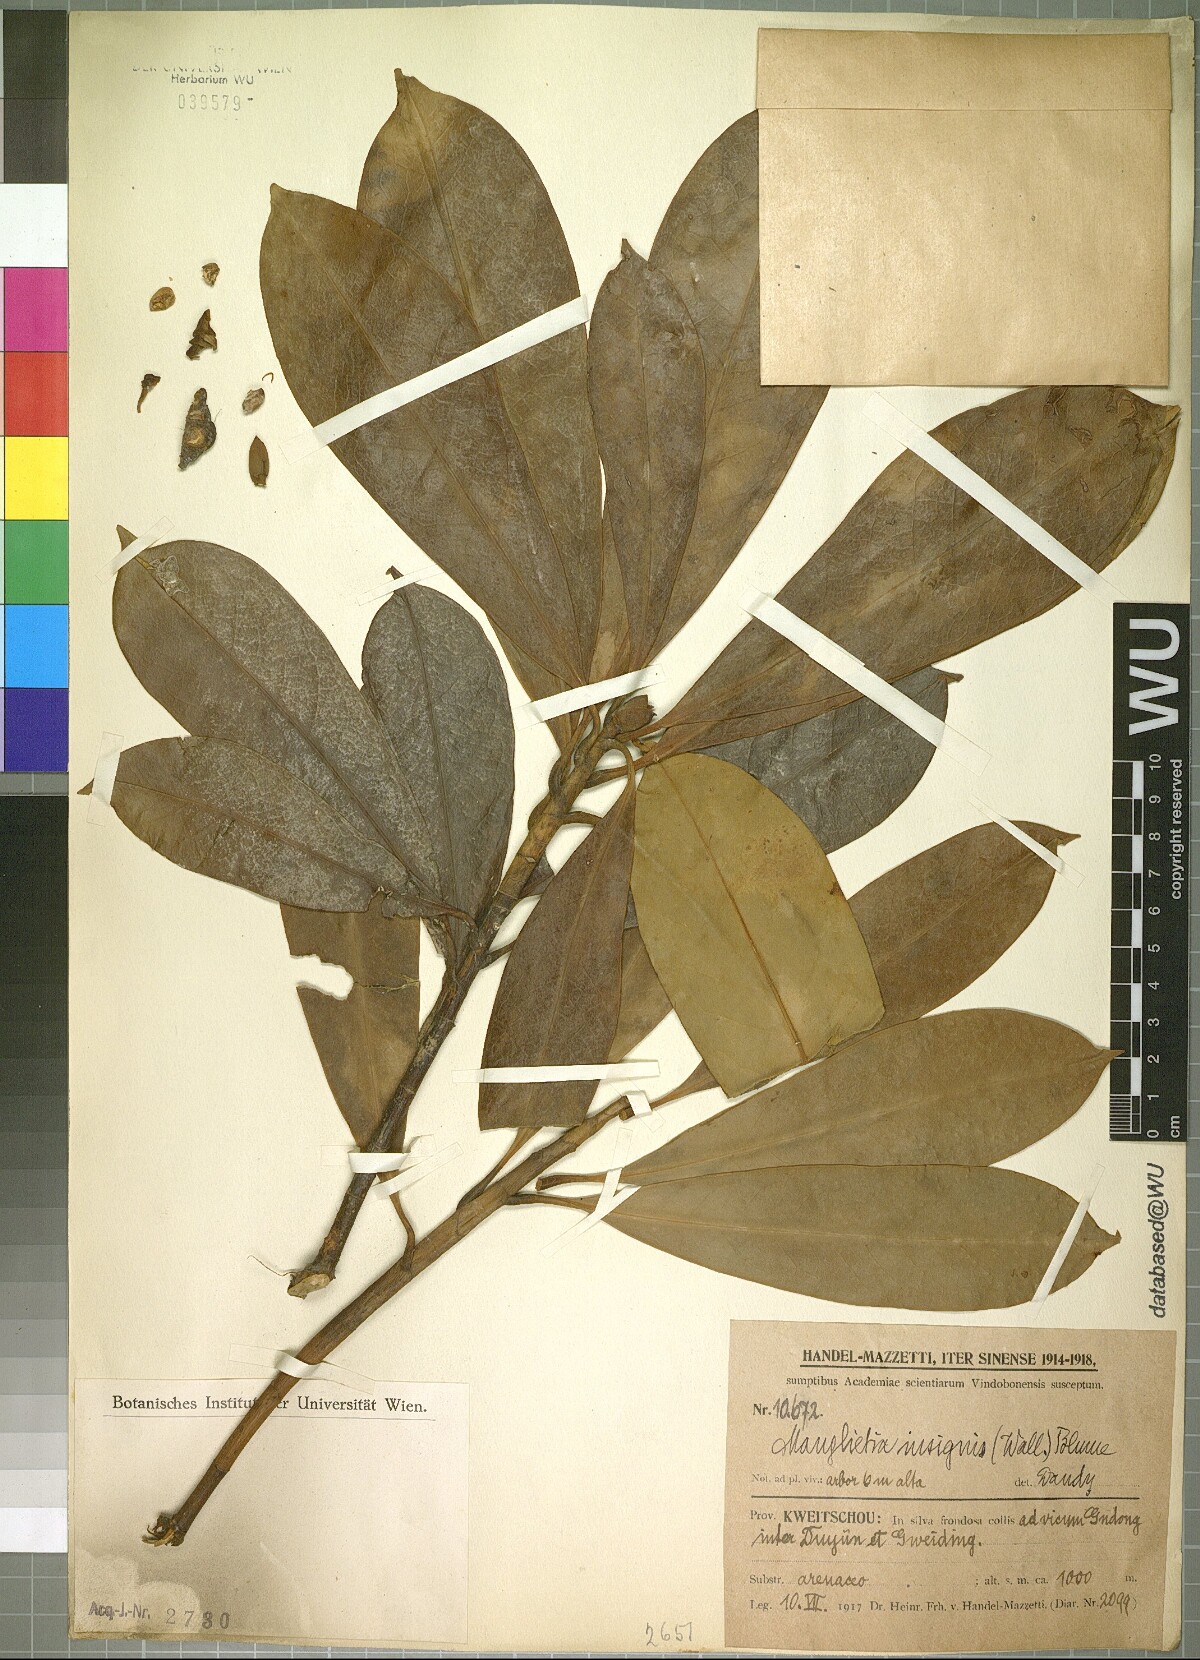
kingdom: Plantae
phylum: Tracheophyta
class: Magnoliopsida
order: Magnoliales
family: Magnoliaceae
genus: Magnolia
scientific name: Magnolia insignis
